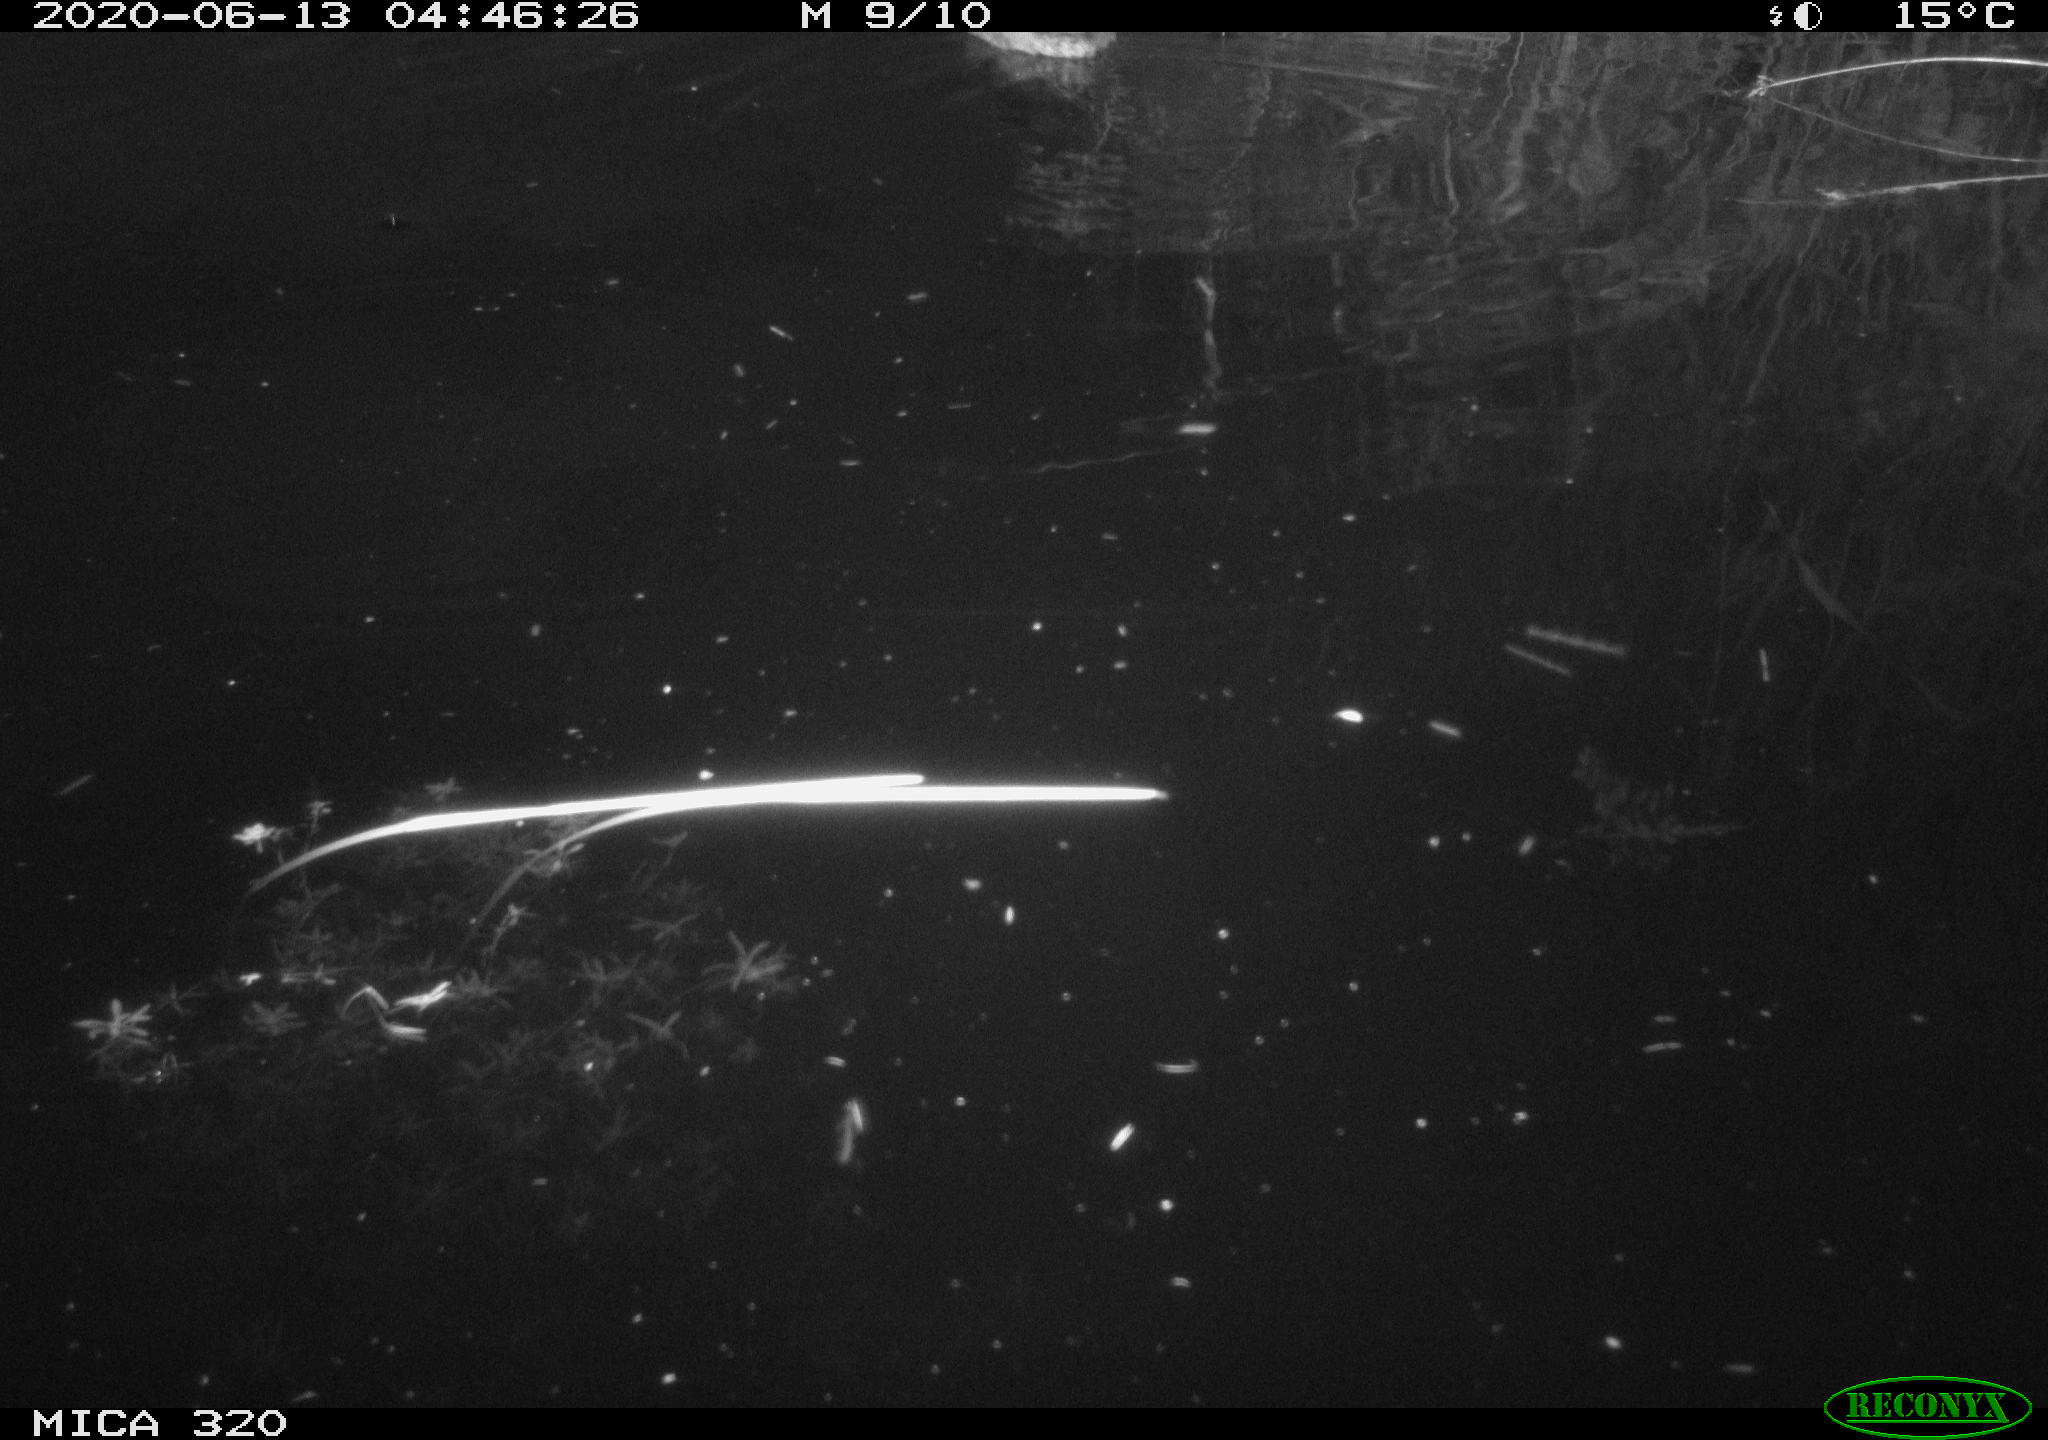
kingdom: Animalia
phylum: Chordata
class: Aves
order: Anseriformes
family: Anatidae
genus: Anas
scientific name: Anas platyrhynchos
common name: Mallard
